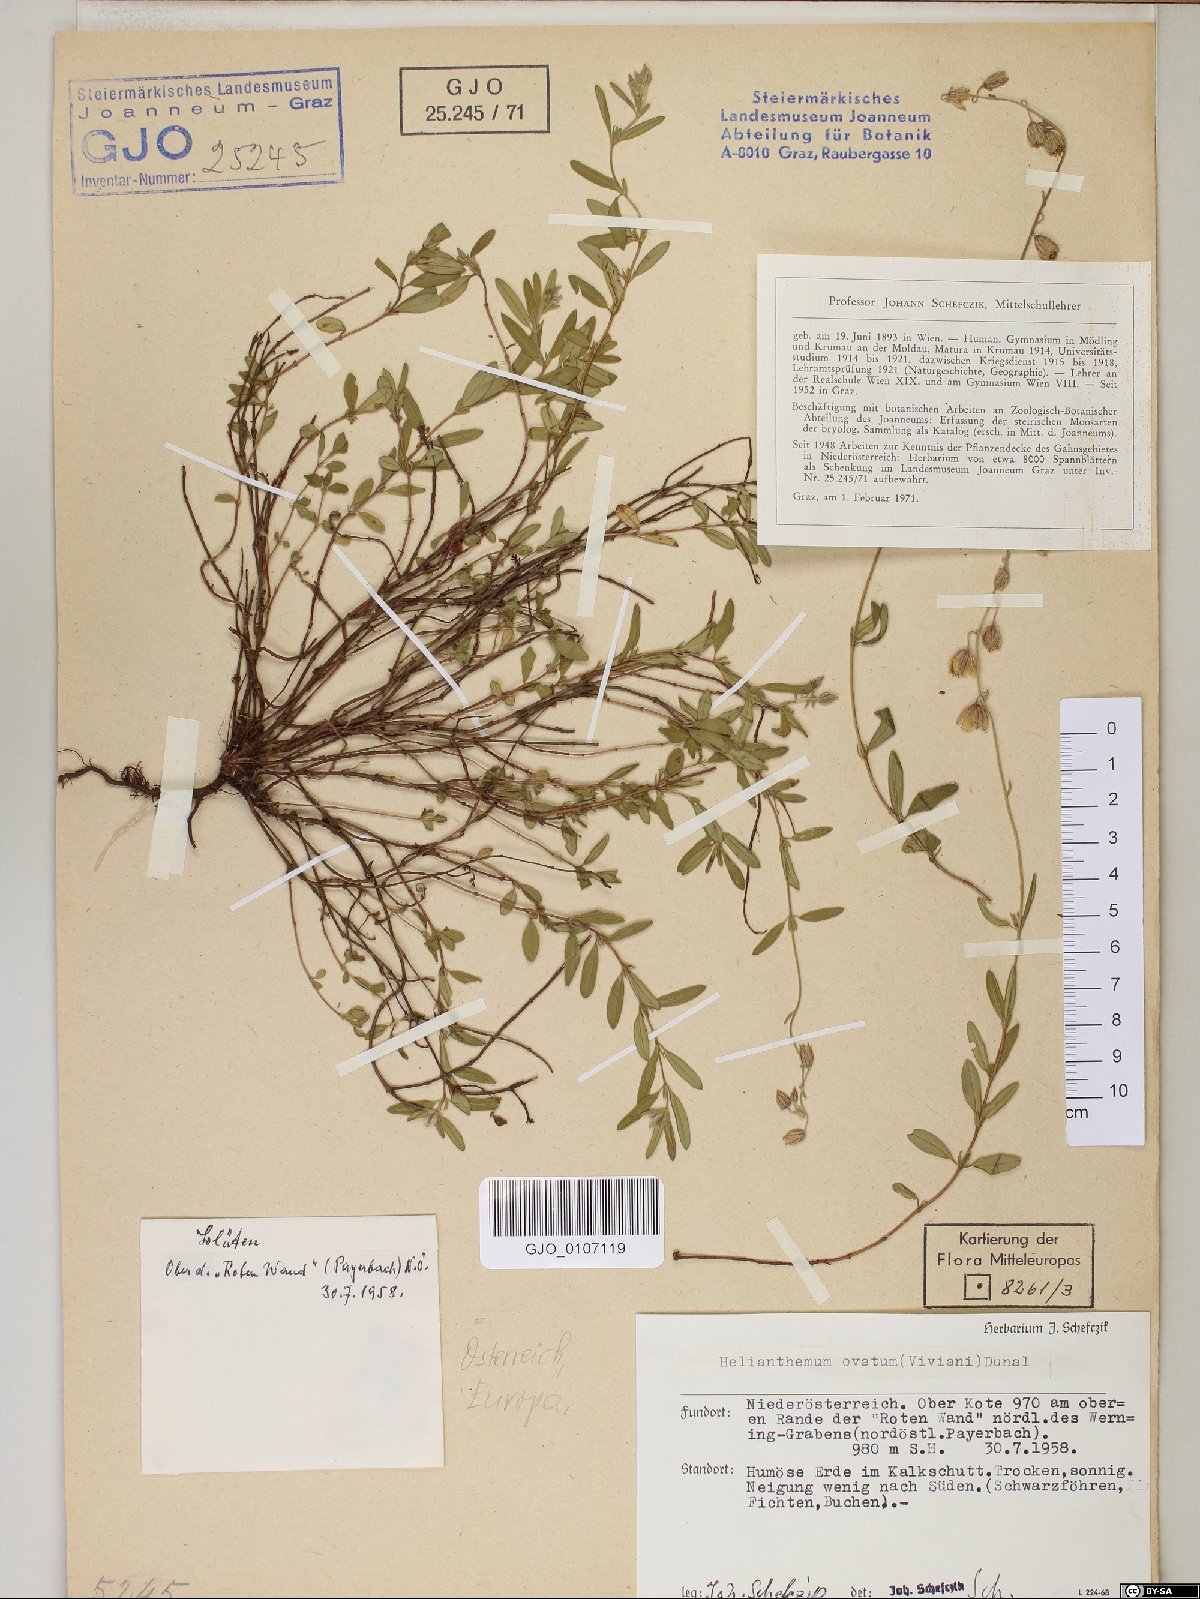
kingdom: Plantae
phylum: Tracheophyta
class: Magnoliopsida
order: Malvales
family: Cistaceae
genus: Helianthemum
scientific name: Helianthemum nummularium
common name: Common rock-rose
